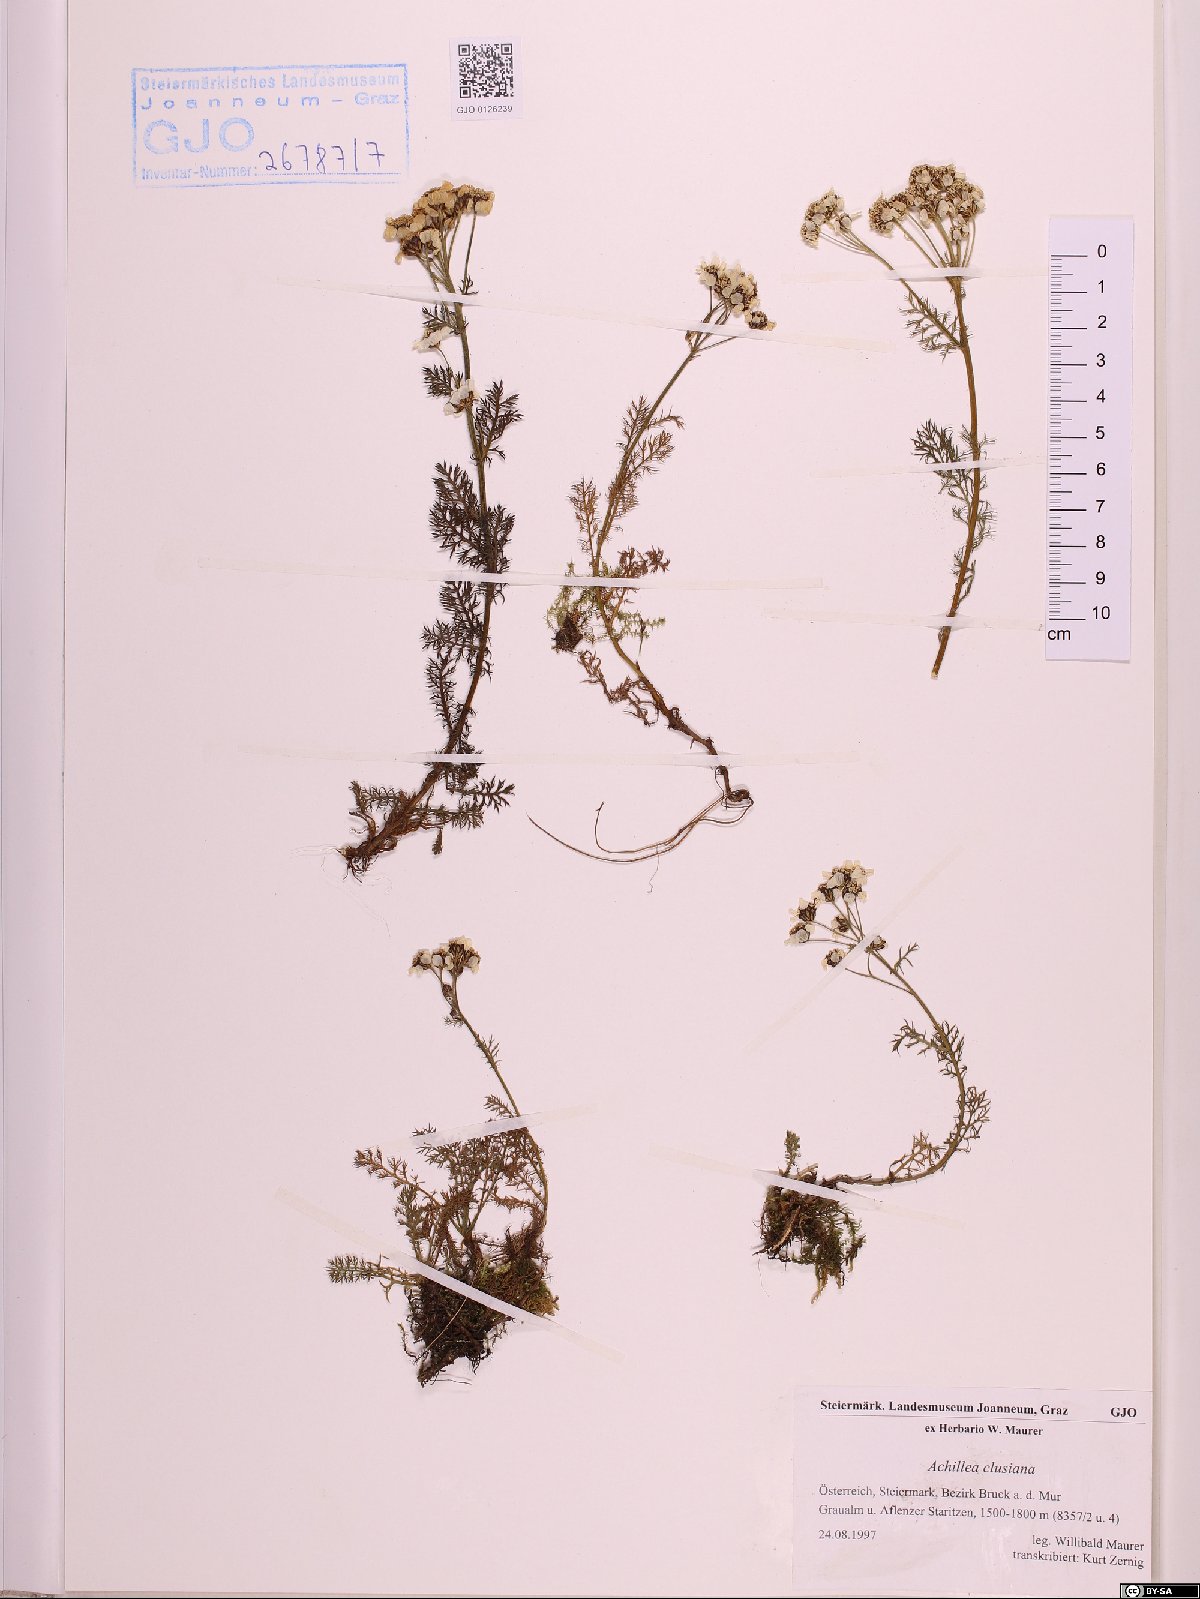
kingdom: Plantae
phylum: Tracheophyta
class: Magnoliopsida
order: Asterales
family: Asteraceae
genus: Achillea
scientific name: Achillea clusiana
